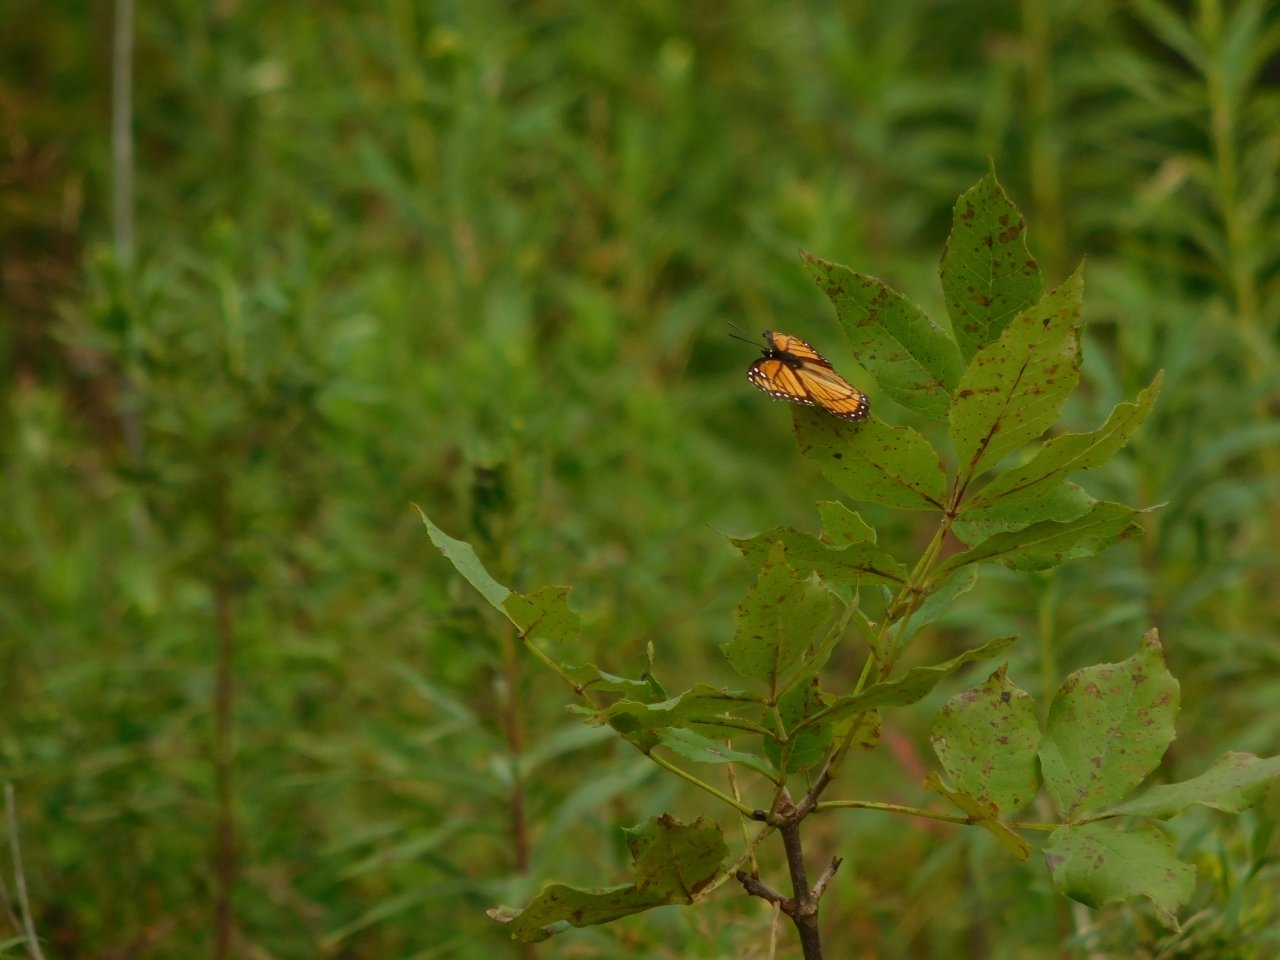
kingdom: Animalia
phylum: Arthropoda
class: Insecta
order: Lepidoptera
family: Nymphalidae
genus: Limenitis
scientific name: Limenitis archippus
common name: Viceroy
